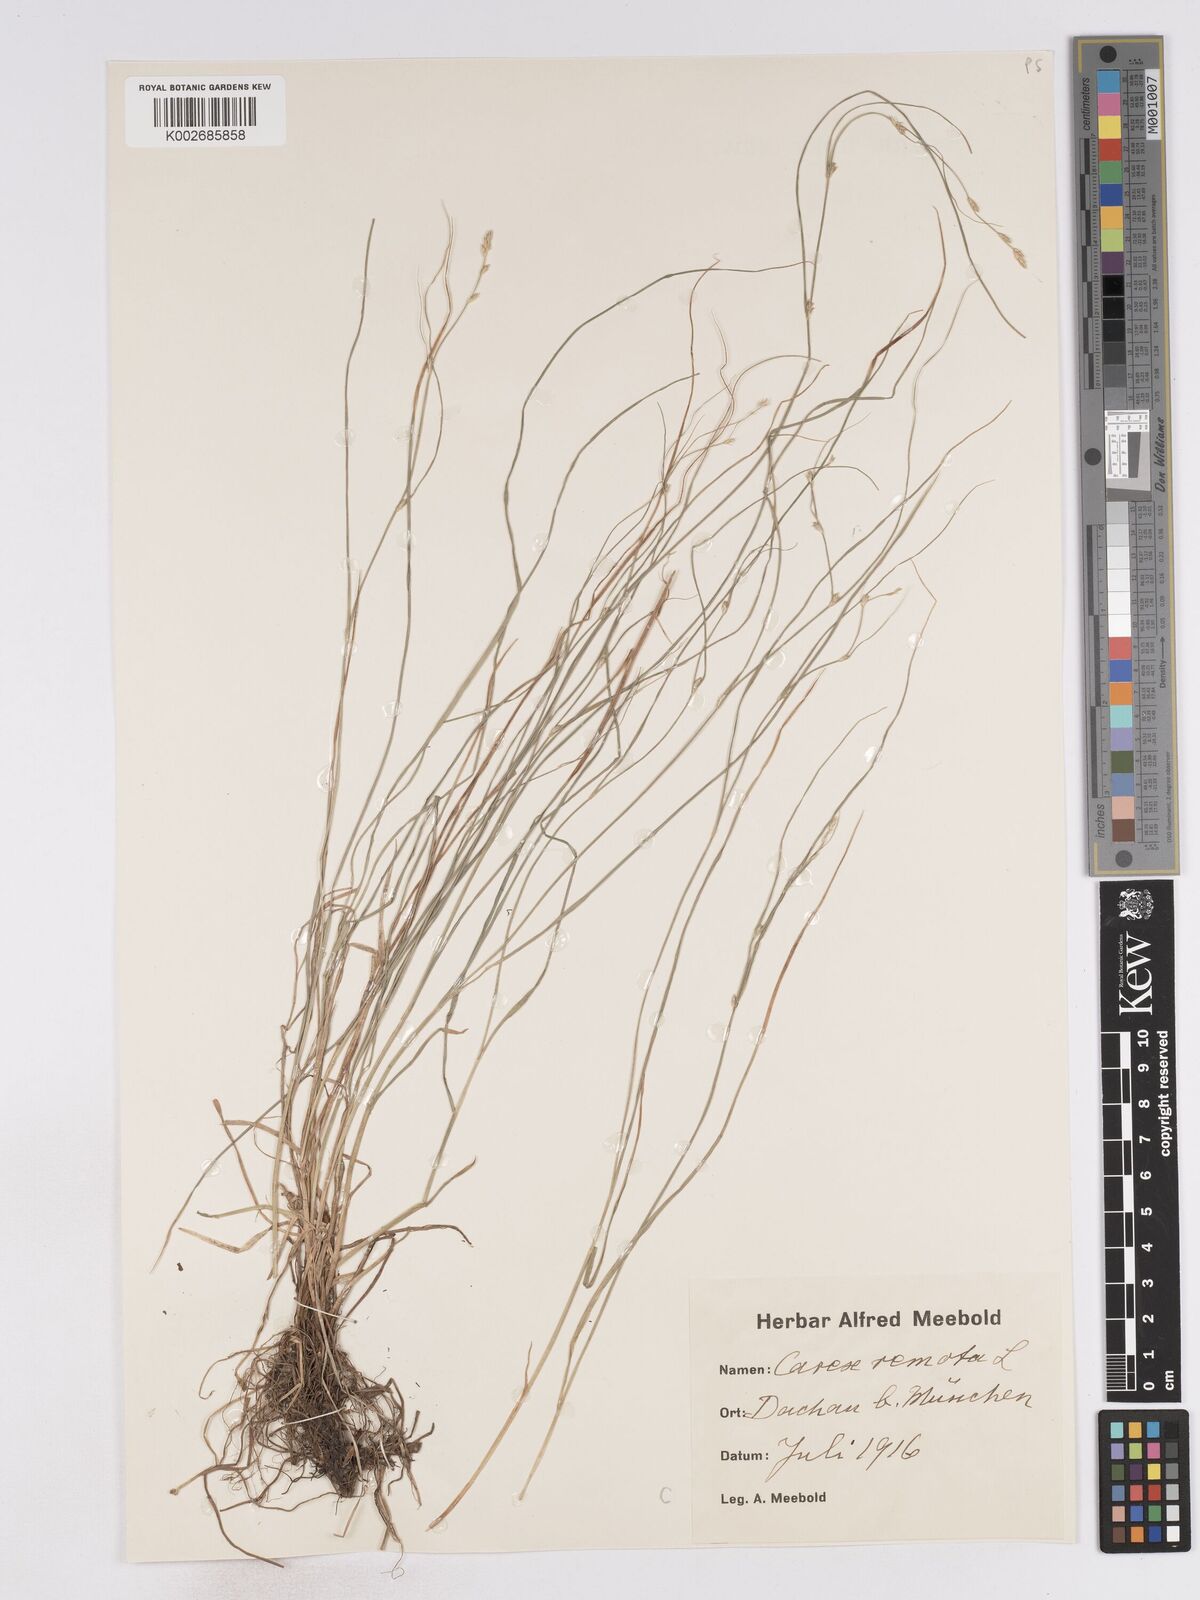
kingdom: Plantae
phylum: Tracheophyta
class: Liliopsida
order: Poales
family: Cyperaceae
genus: Carex
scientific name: Carex remota
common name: Remote sedge
